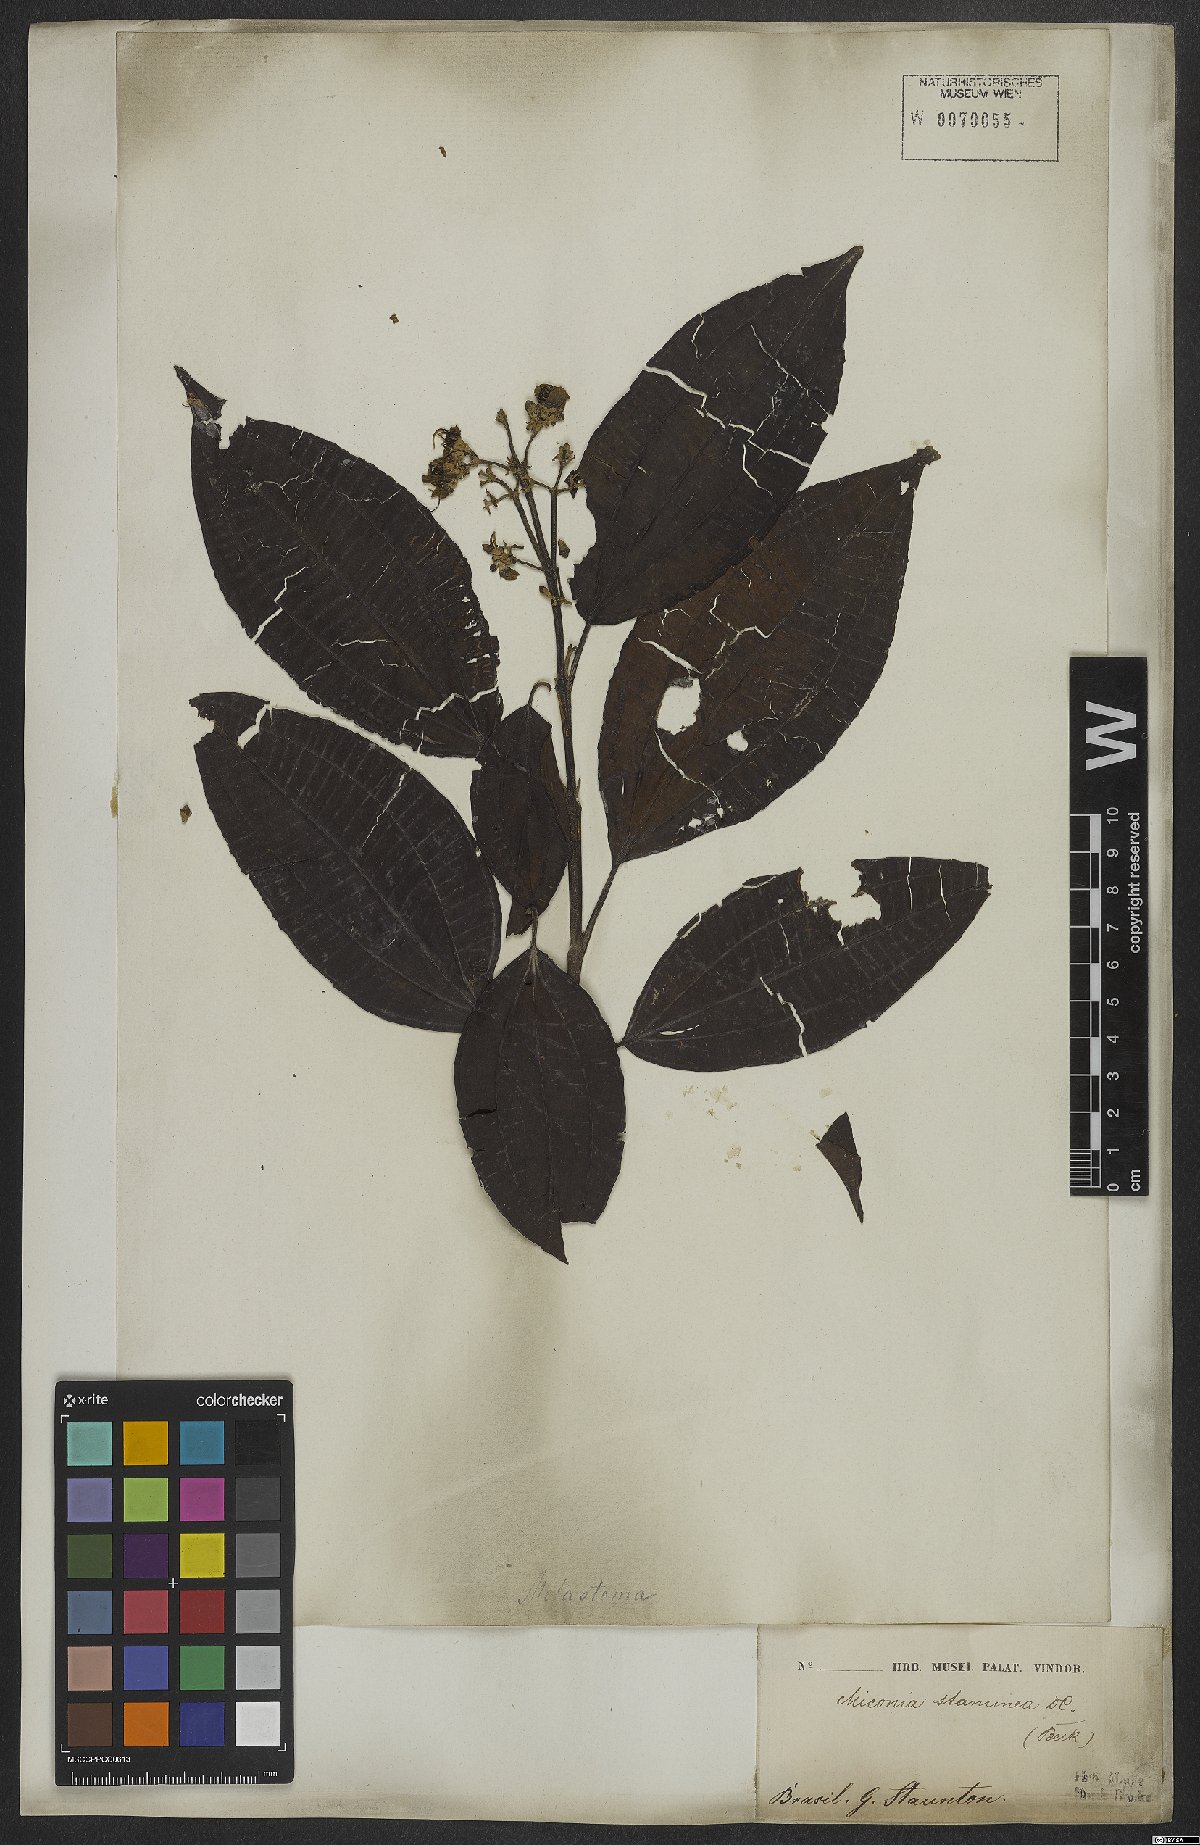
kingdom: Plantae
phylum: Tracheophyta
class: Magnoliopsida
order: Myrtales
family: Melastomataceae
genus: Miconia
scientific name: Miconia staminea
